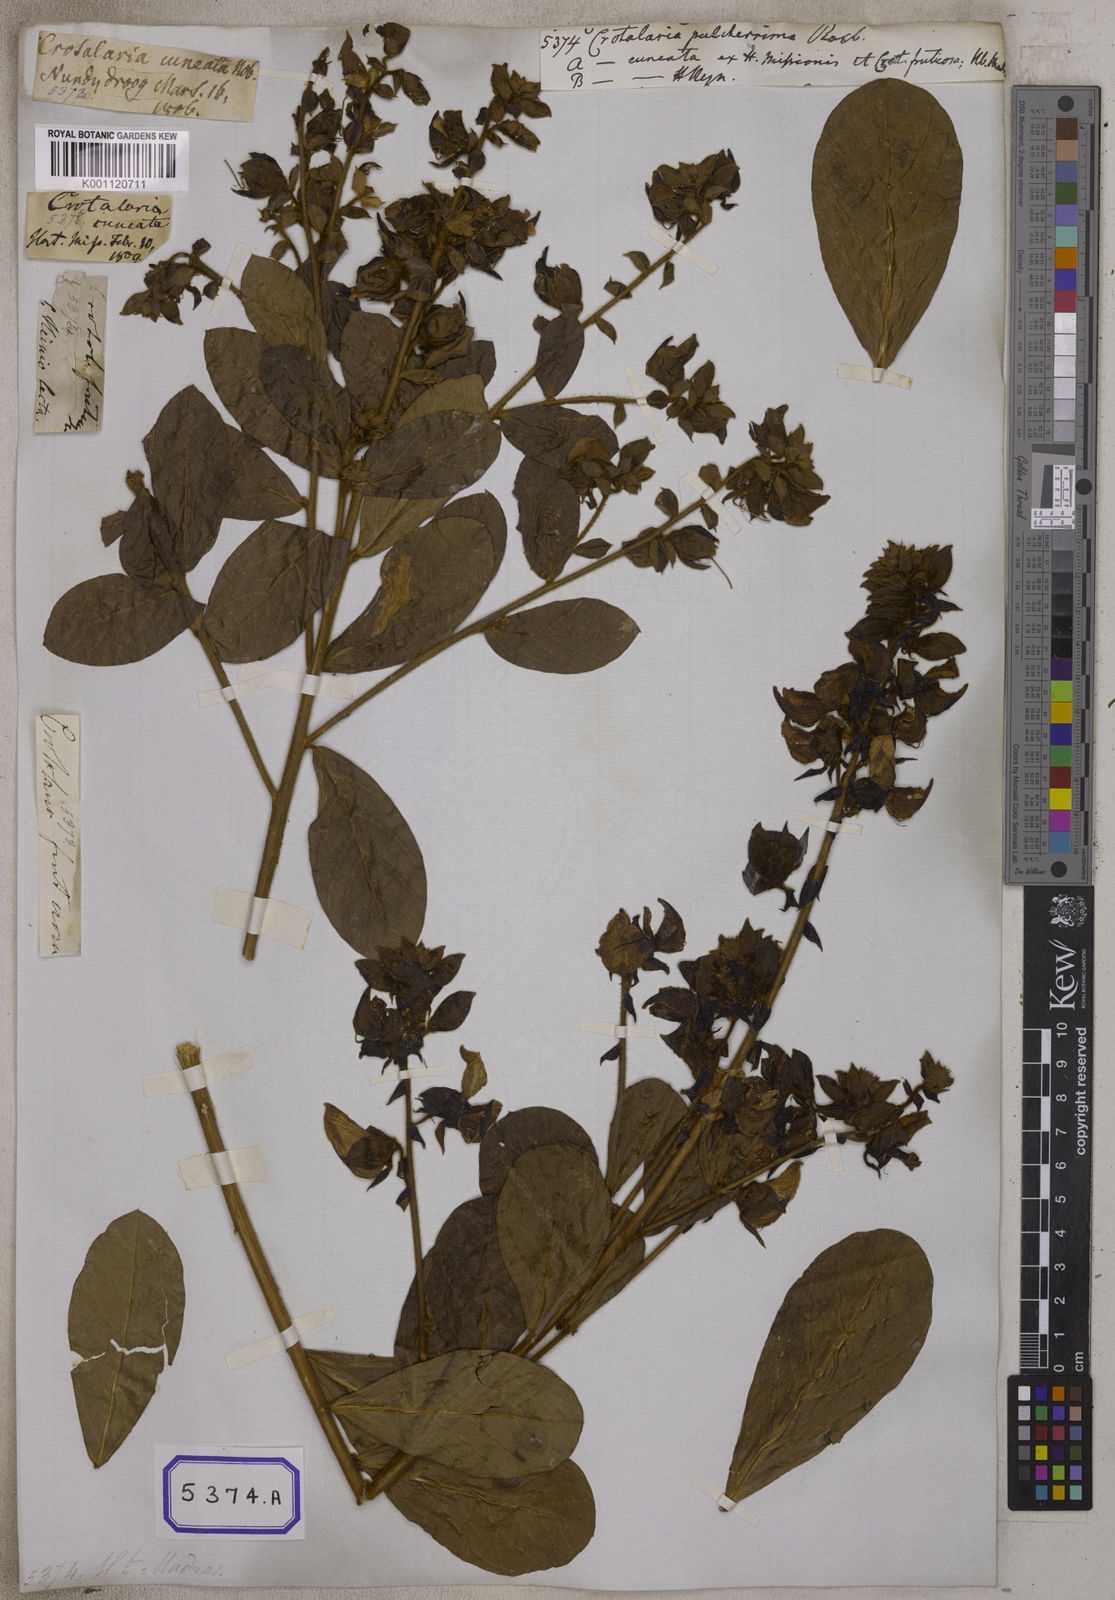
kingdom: Plantae
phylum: Tracheophyta
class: Magnoliopsida
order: Fabales
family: Fabaceae
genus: Crotalaria
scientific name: Crotalaria pulcherrima
